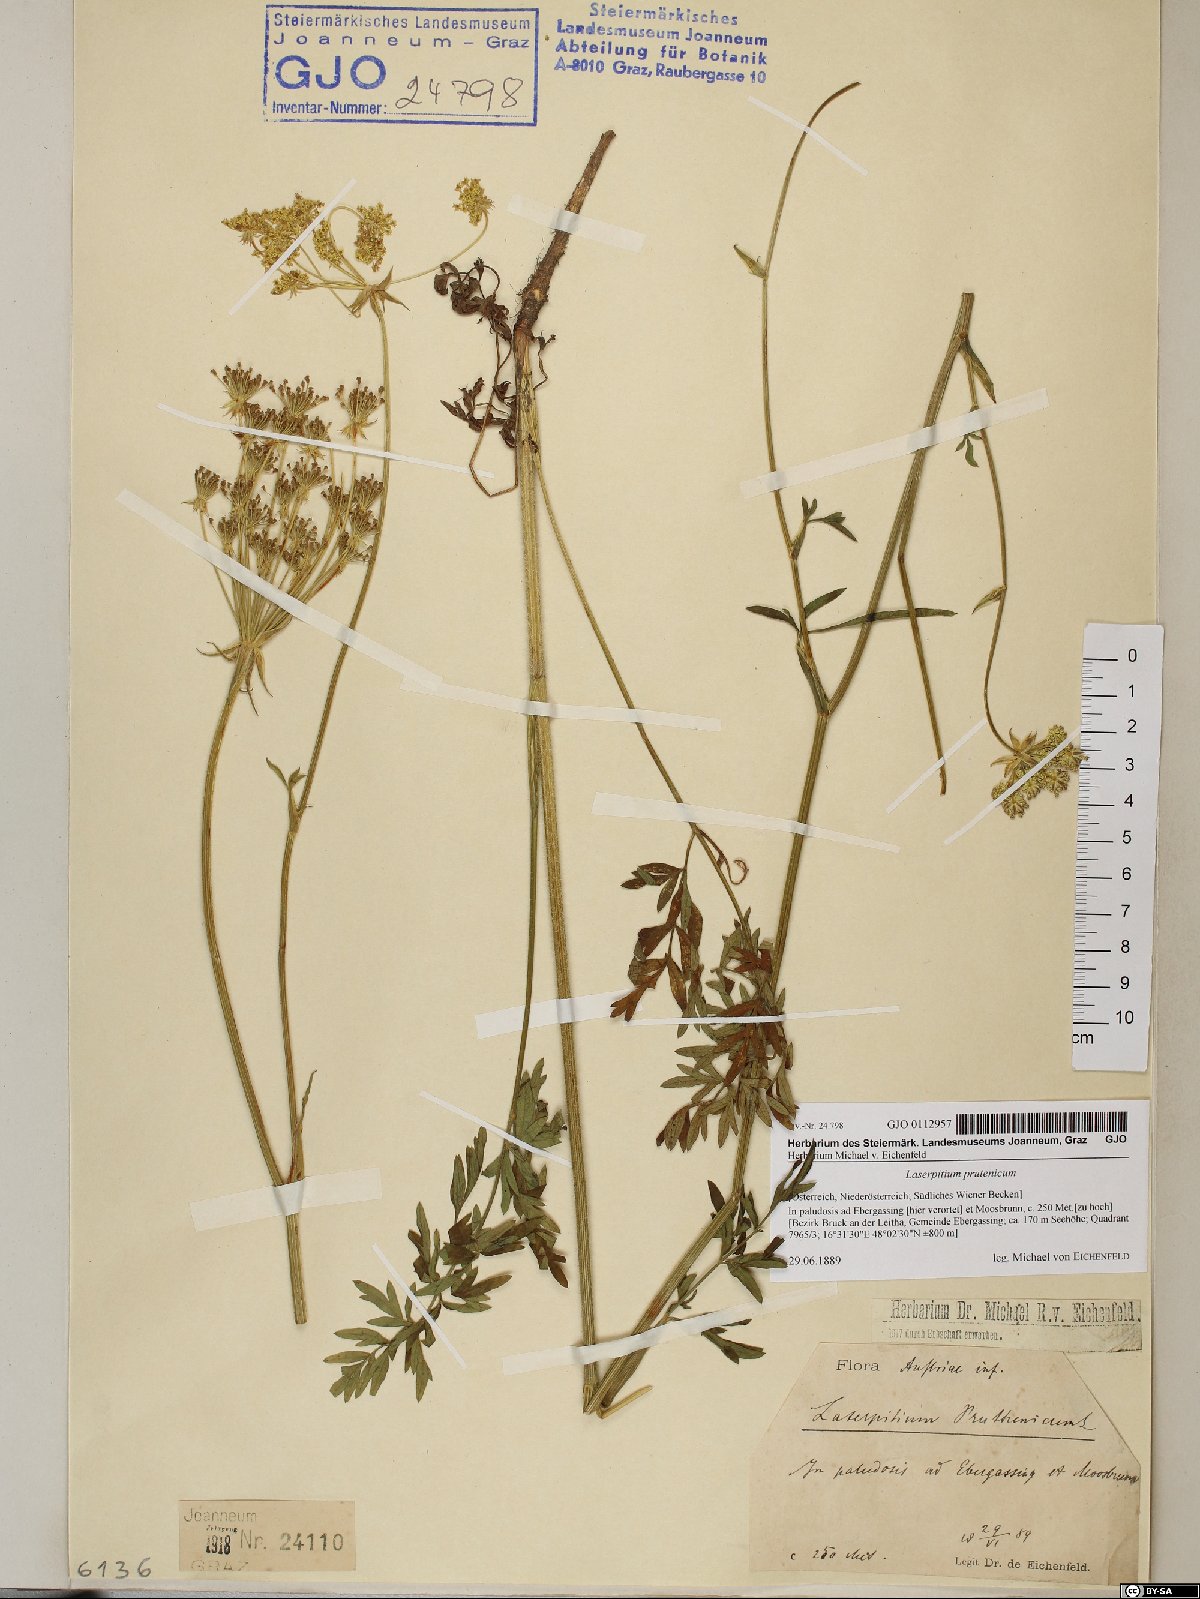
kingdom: Plantae
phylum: Tracheophyta
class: Magnoliopsida
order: Apiales
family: Apiaceae
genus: Silphiodaucus
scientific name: Silphiodaucus prutenicus
